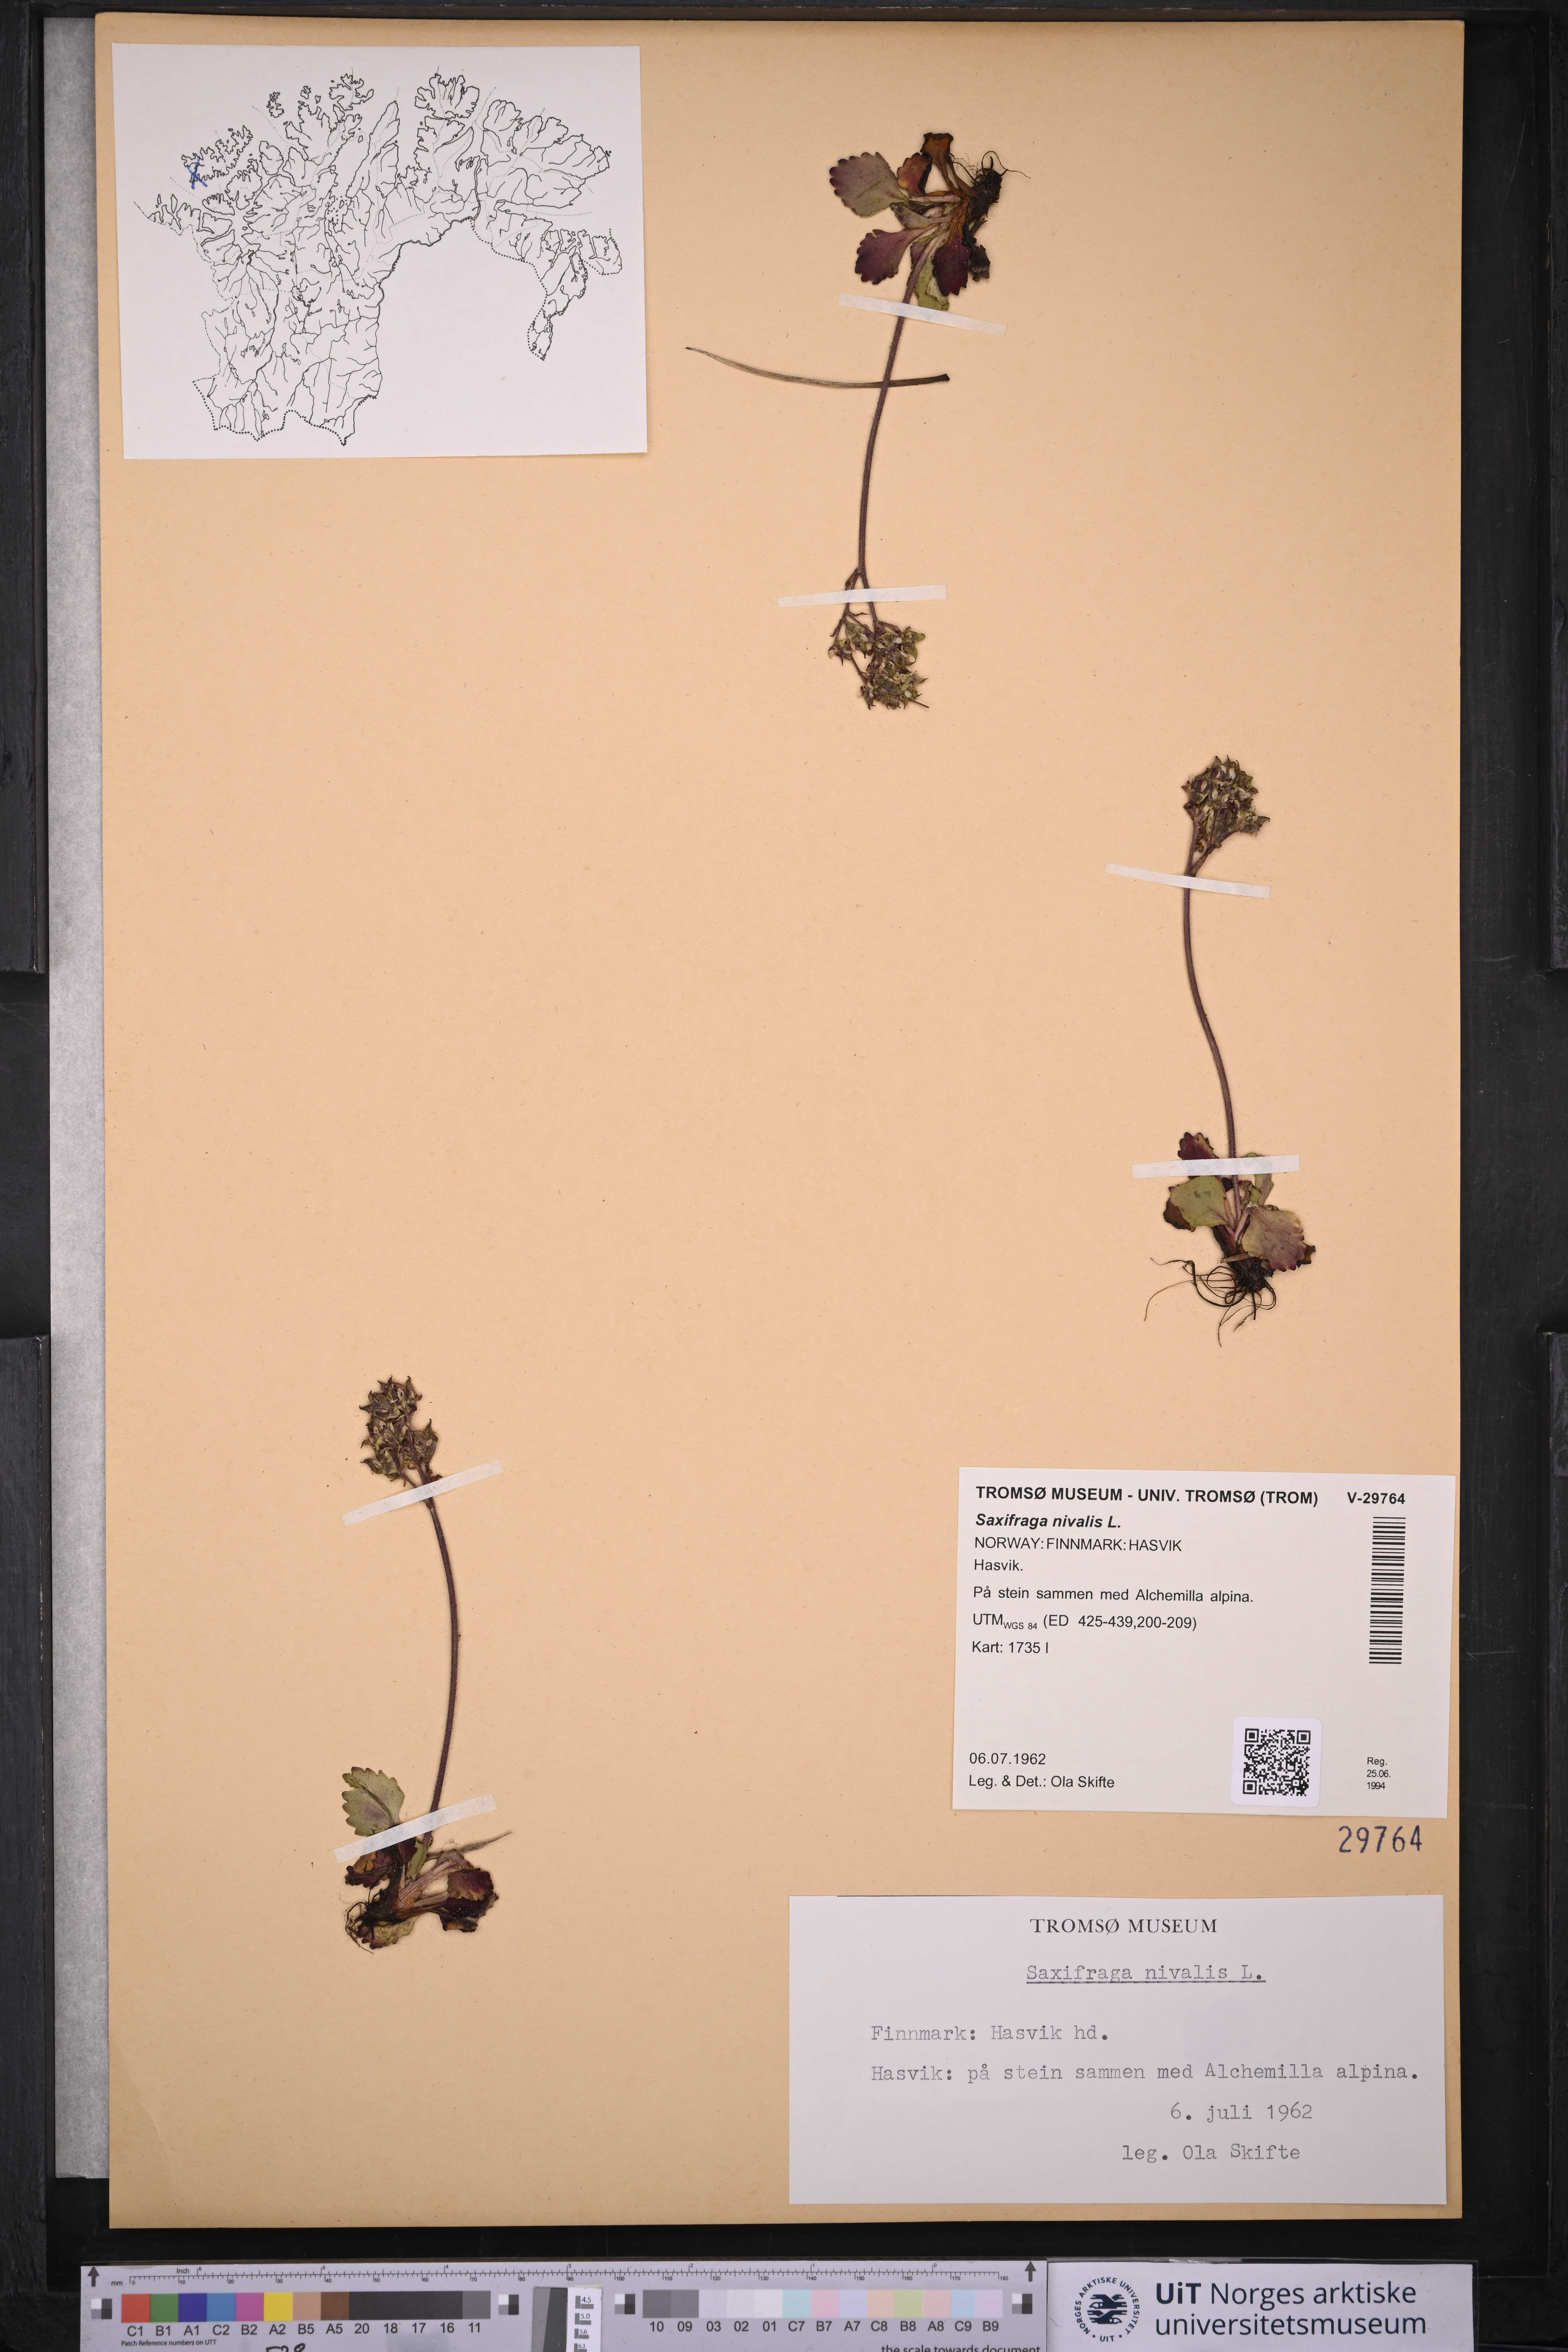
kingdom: Plantae
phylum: Tracheophyta
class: Magnoliopsida
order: Saxifragales
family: Saxifragaceae
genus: Micranthes
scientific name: Micranthes nivalis
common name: Alpine saxifrage
